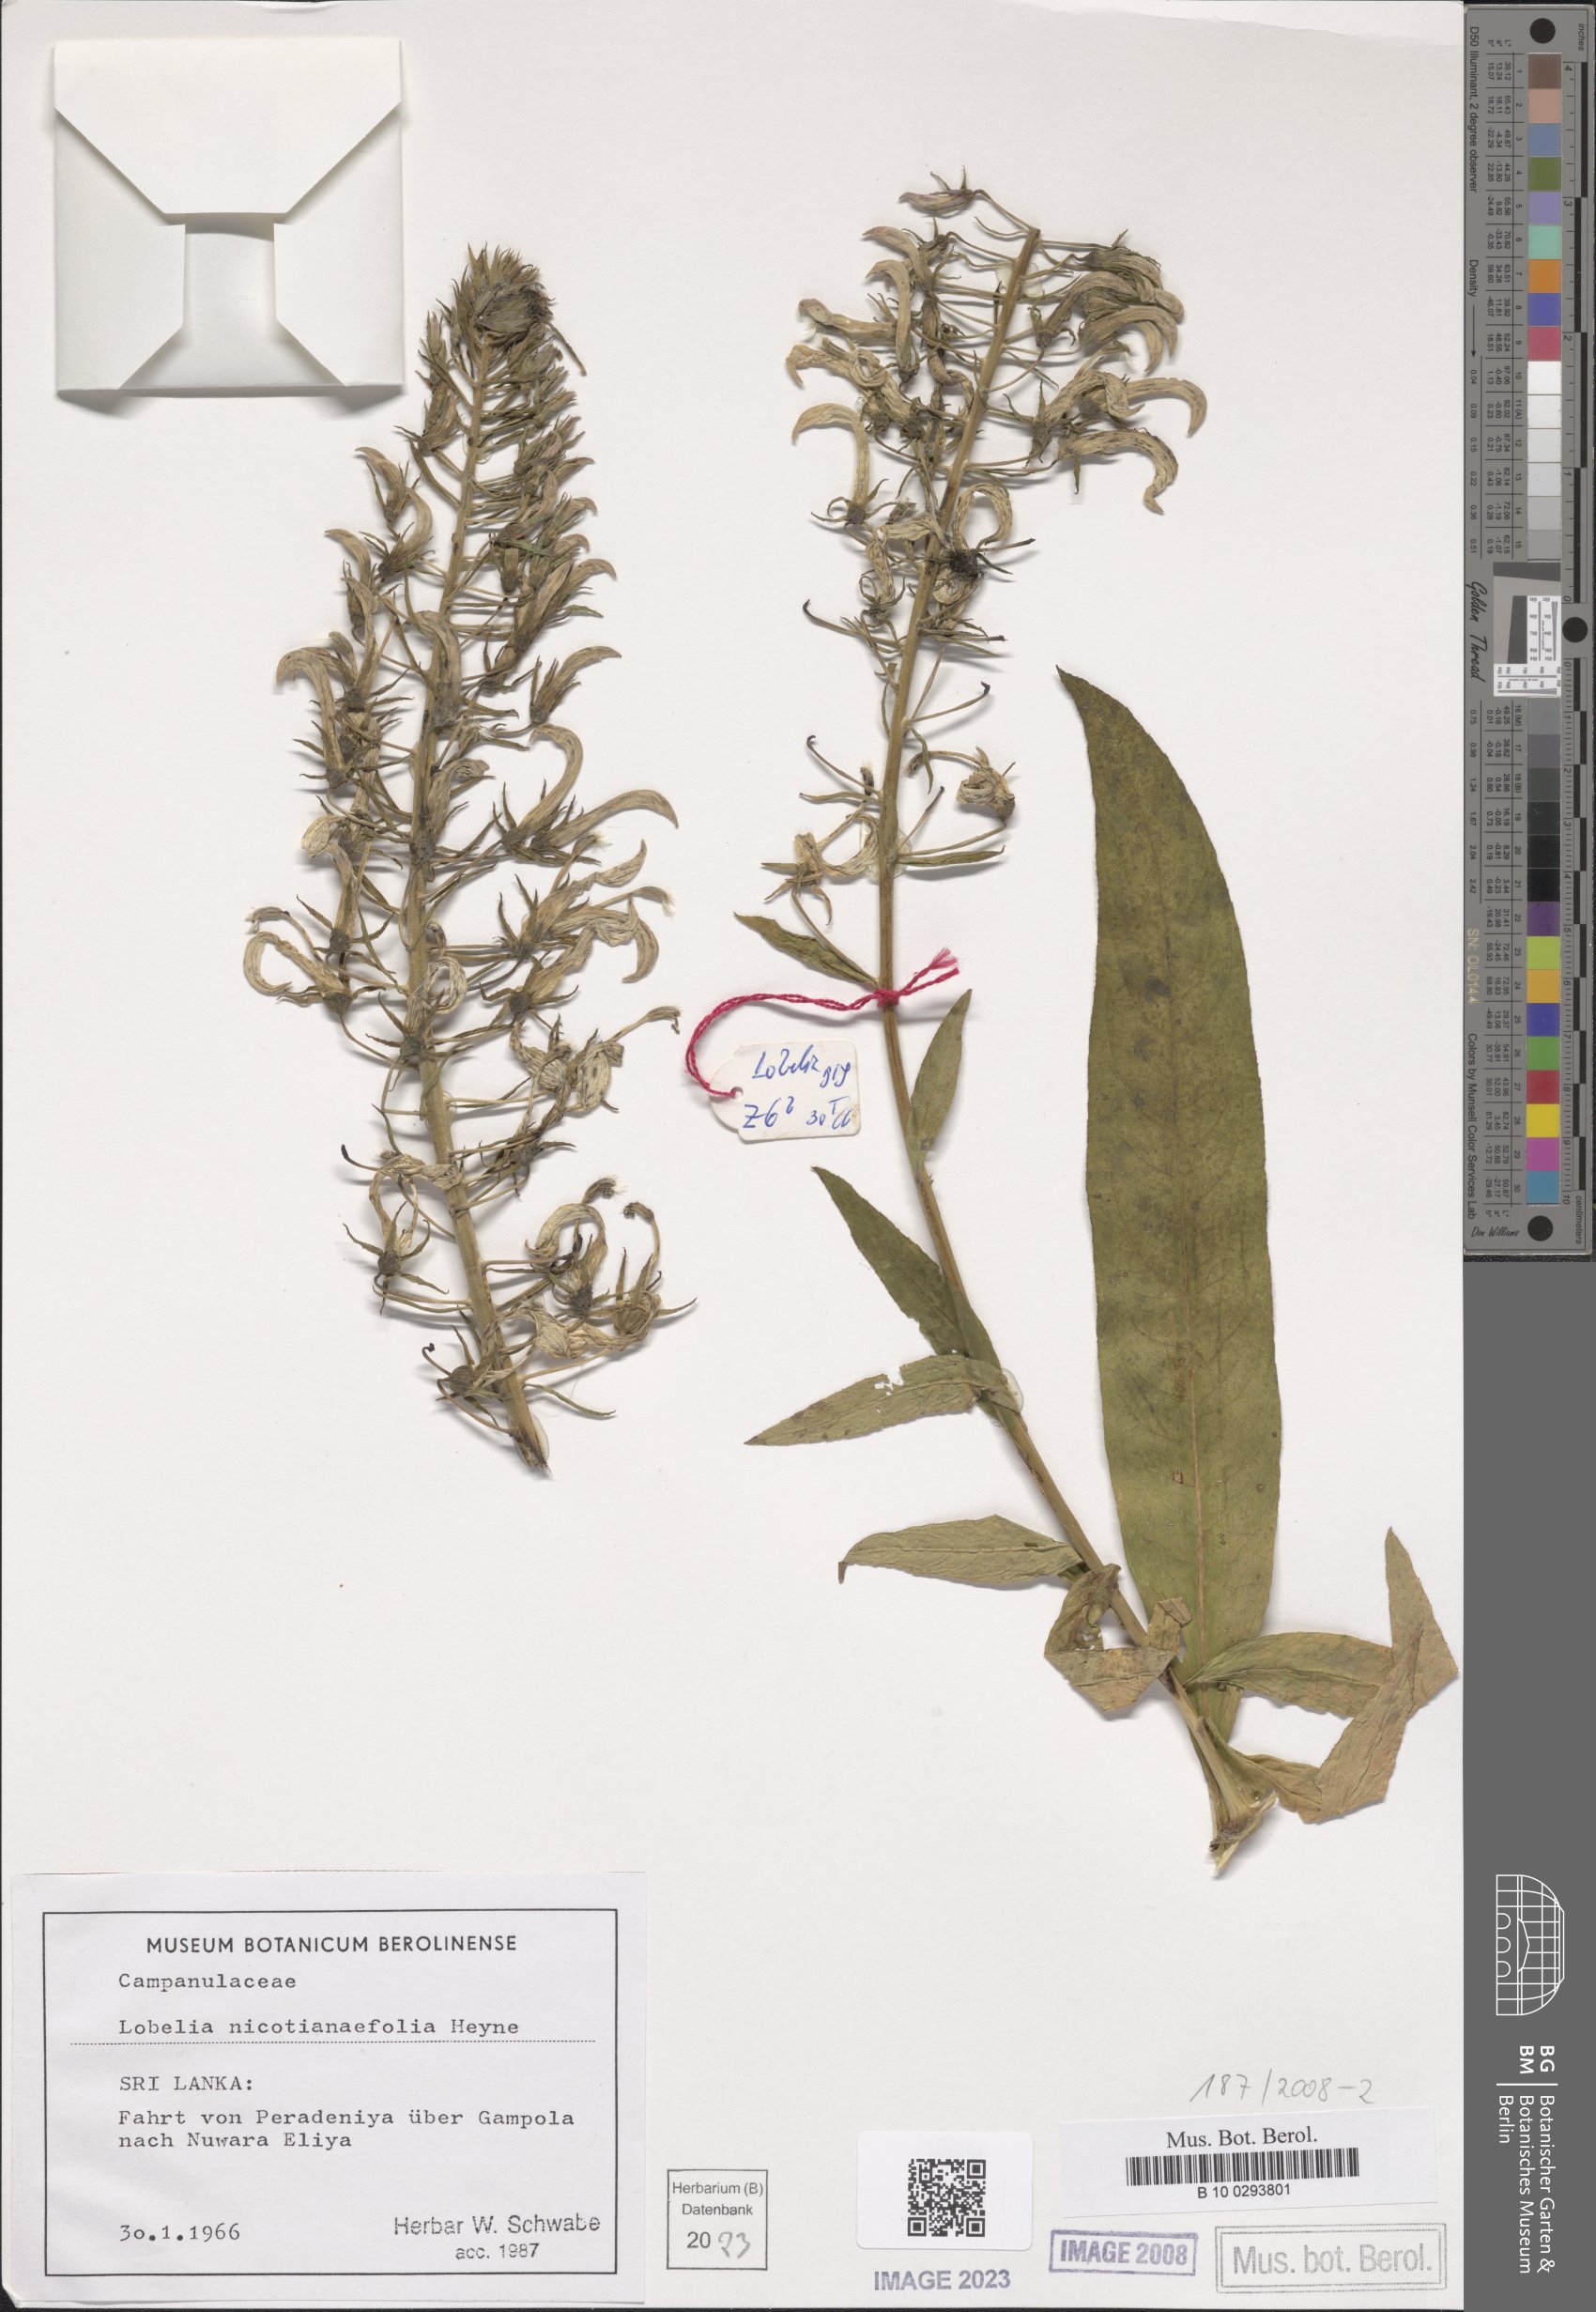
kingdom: Plantae
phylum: Tracheophyta
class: Magnoliopsida
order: Asterales
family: Campanulaceae
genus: Lobelia
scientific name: Lobelia nicotianifolia
